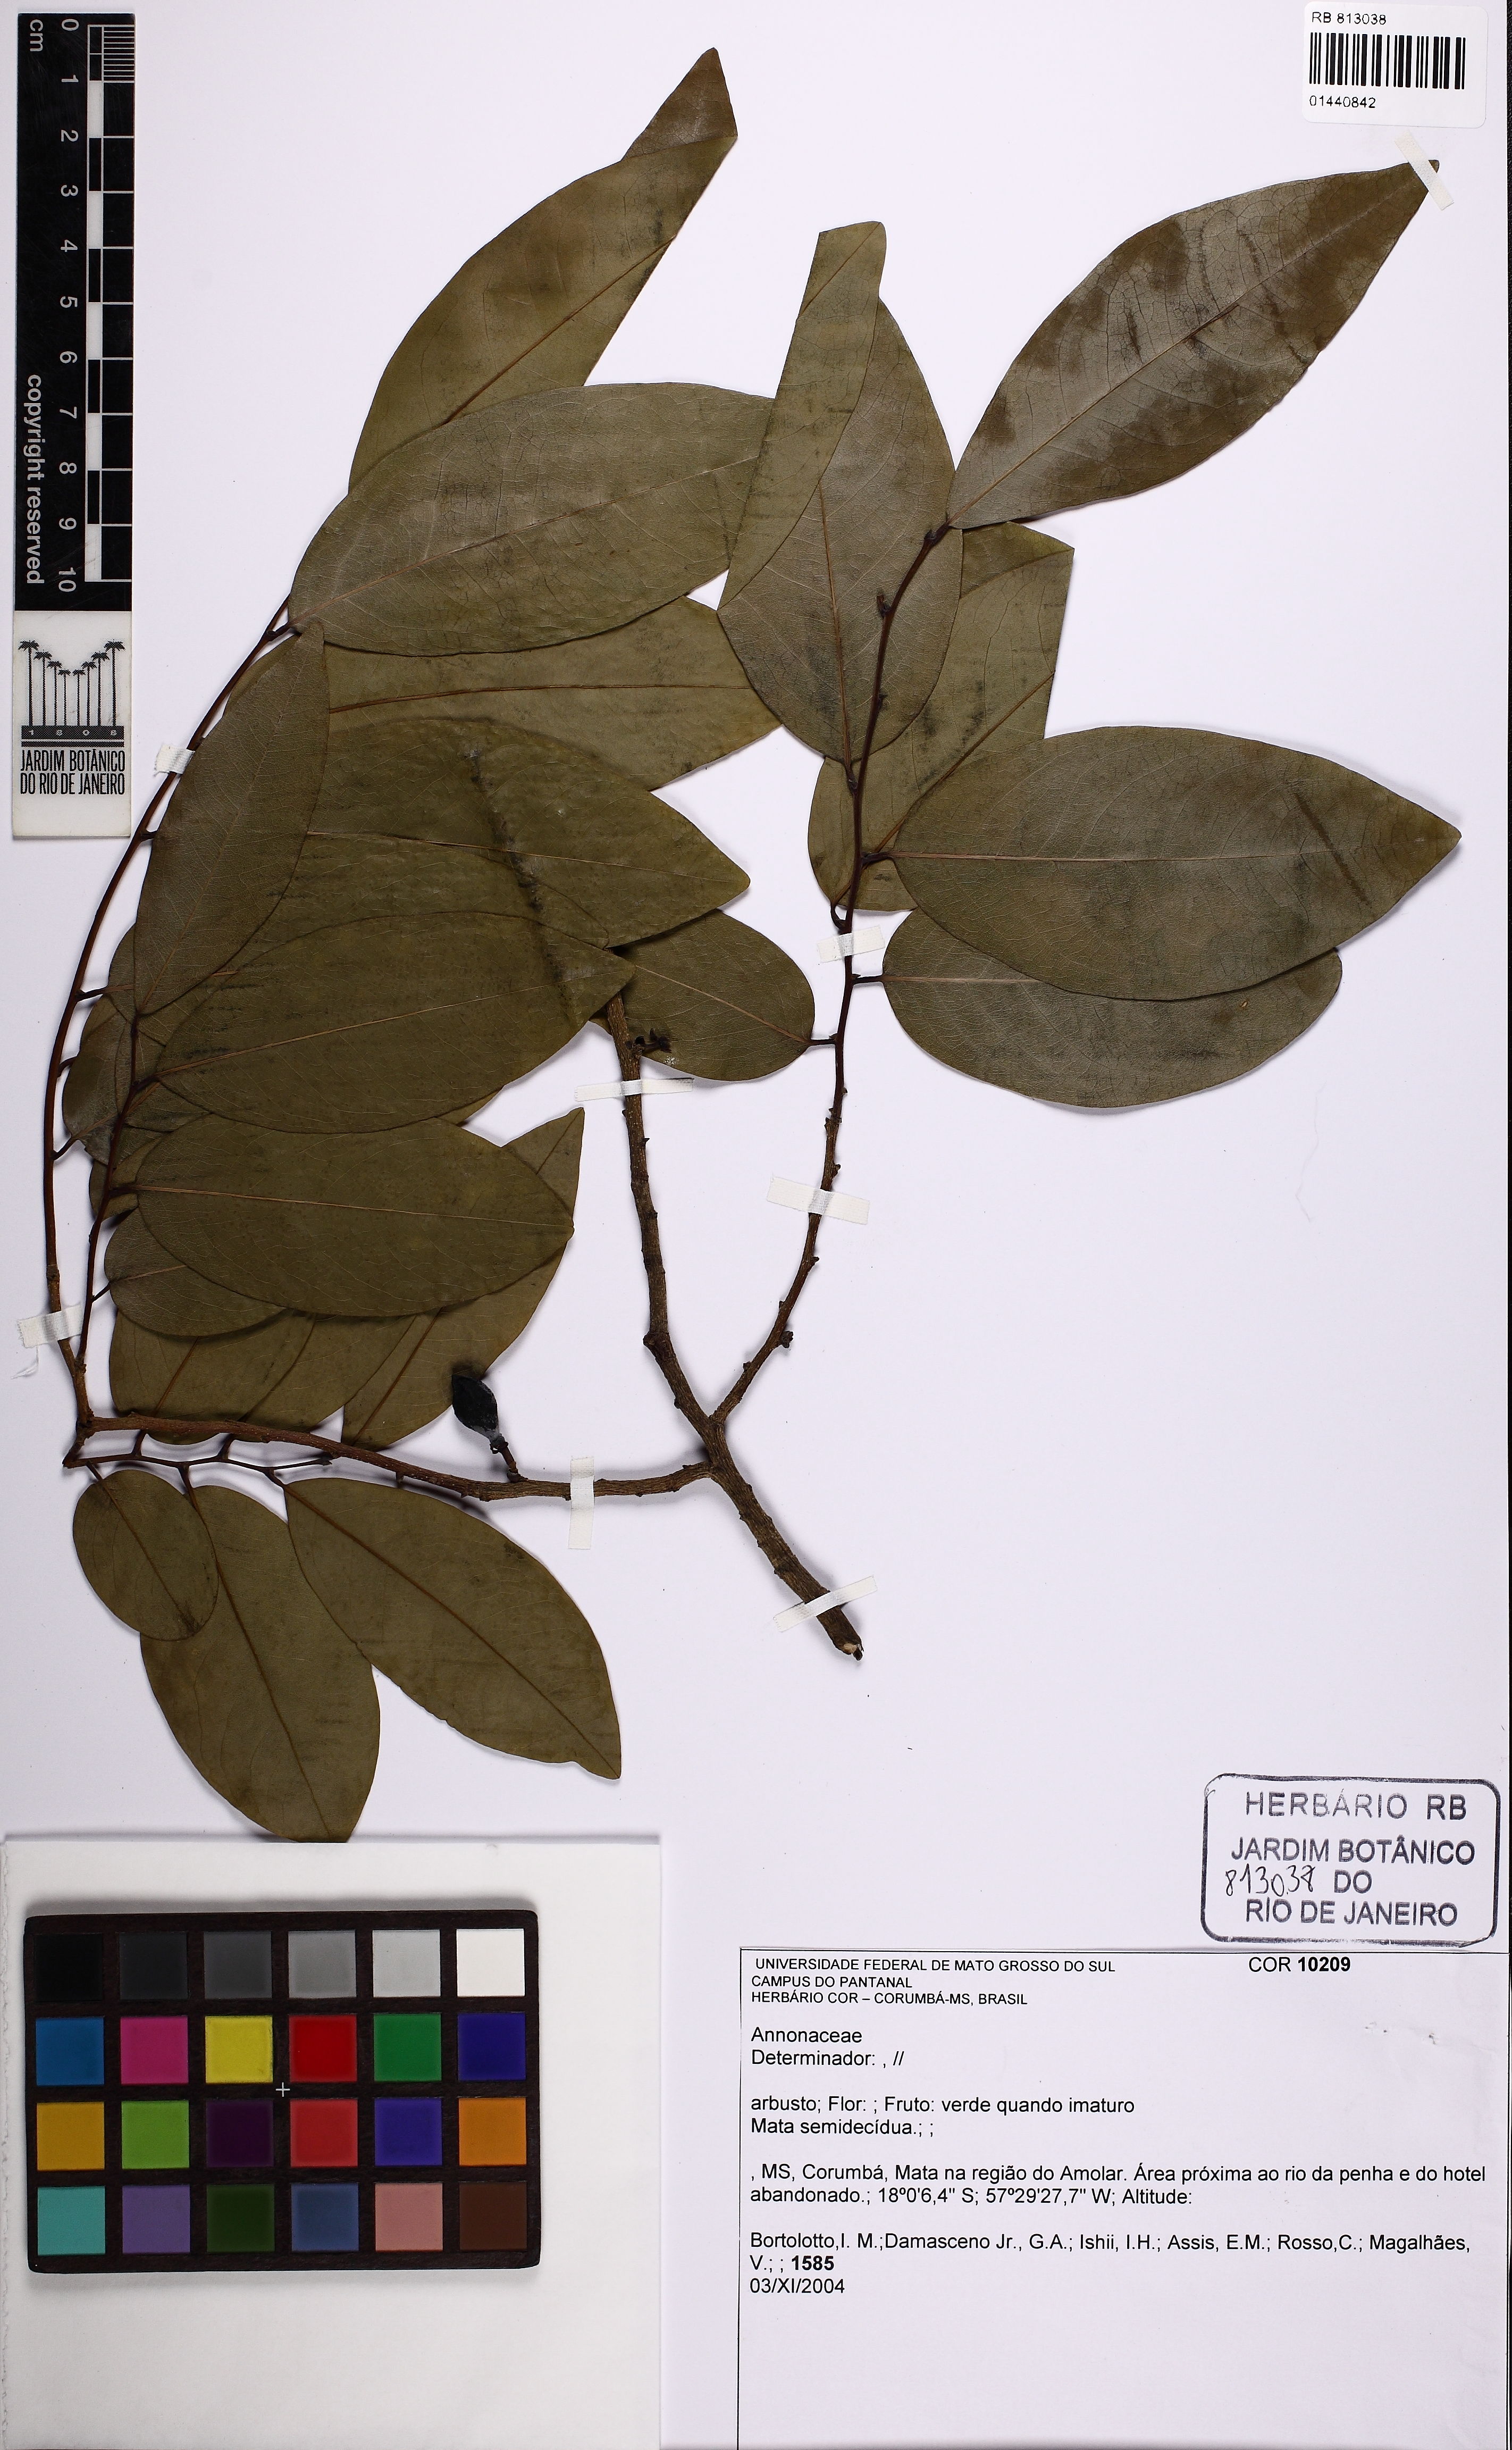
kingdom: Plantae
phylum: Tracheophyta
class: Magnoliopsida
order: Magnoliales
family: Annonaceae
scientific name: Annonaceae
